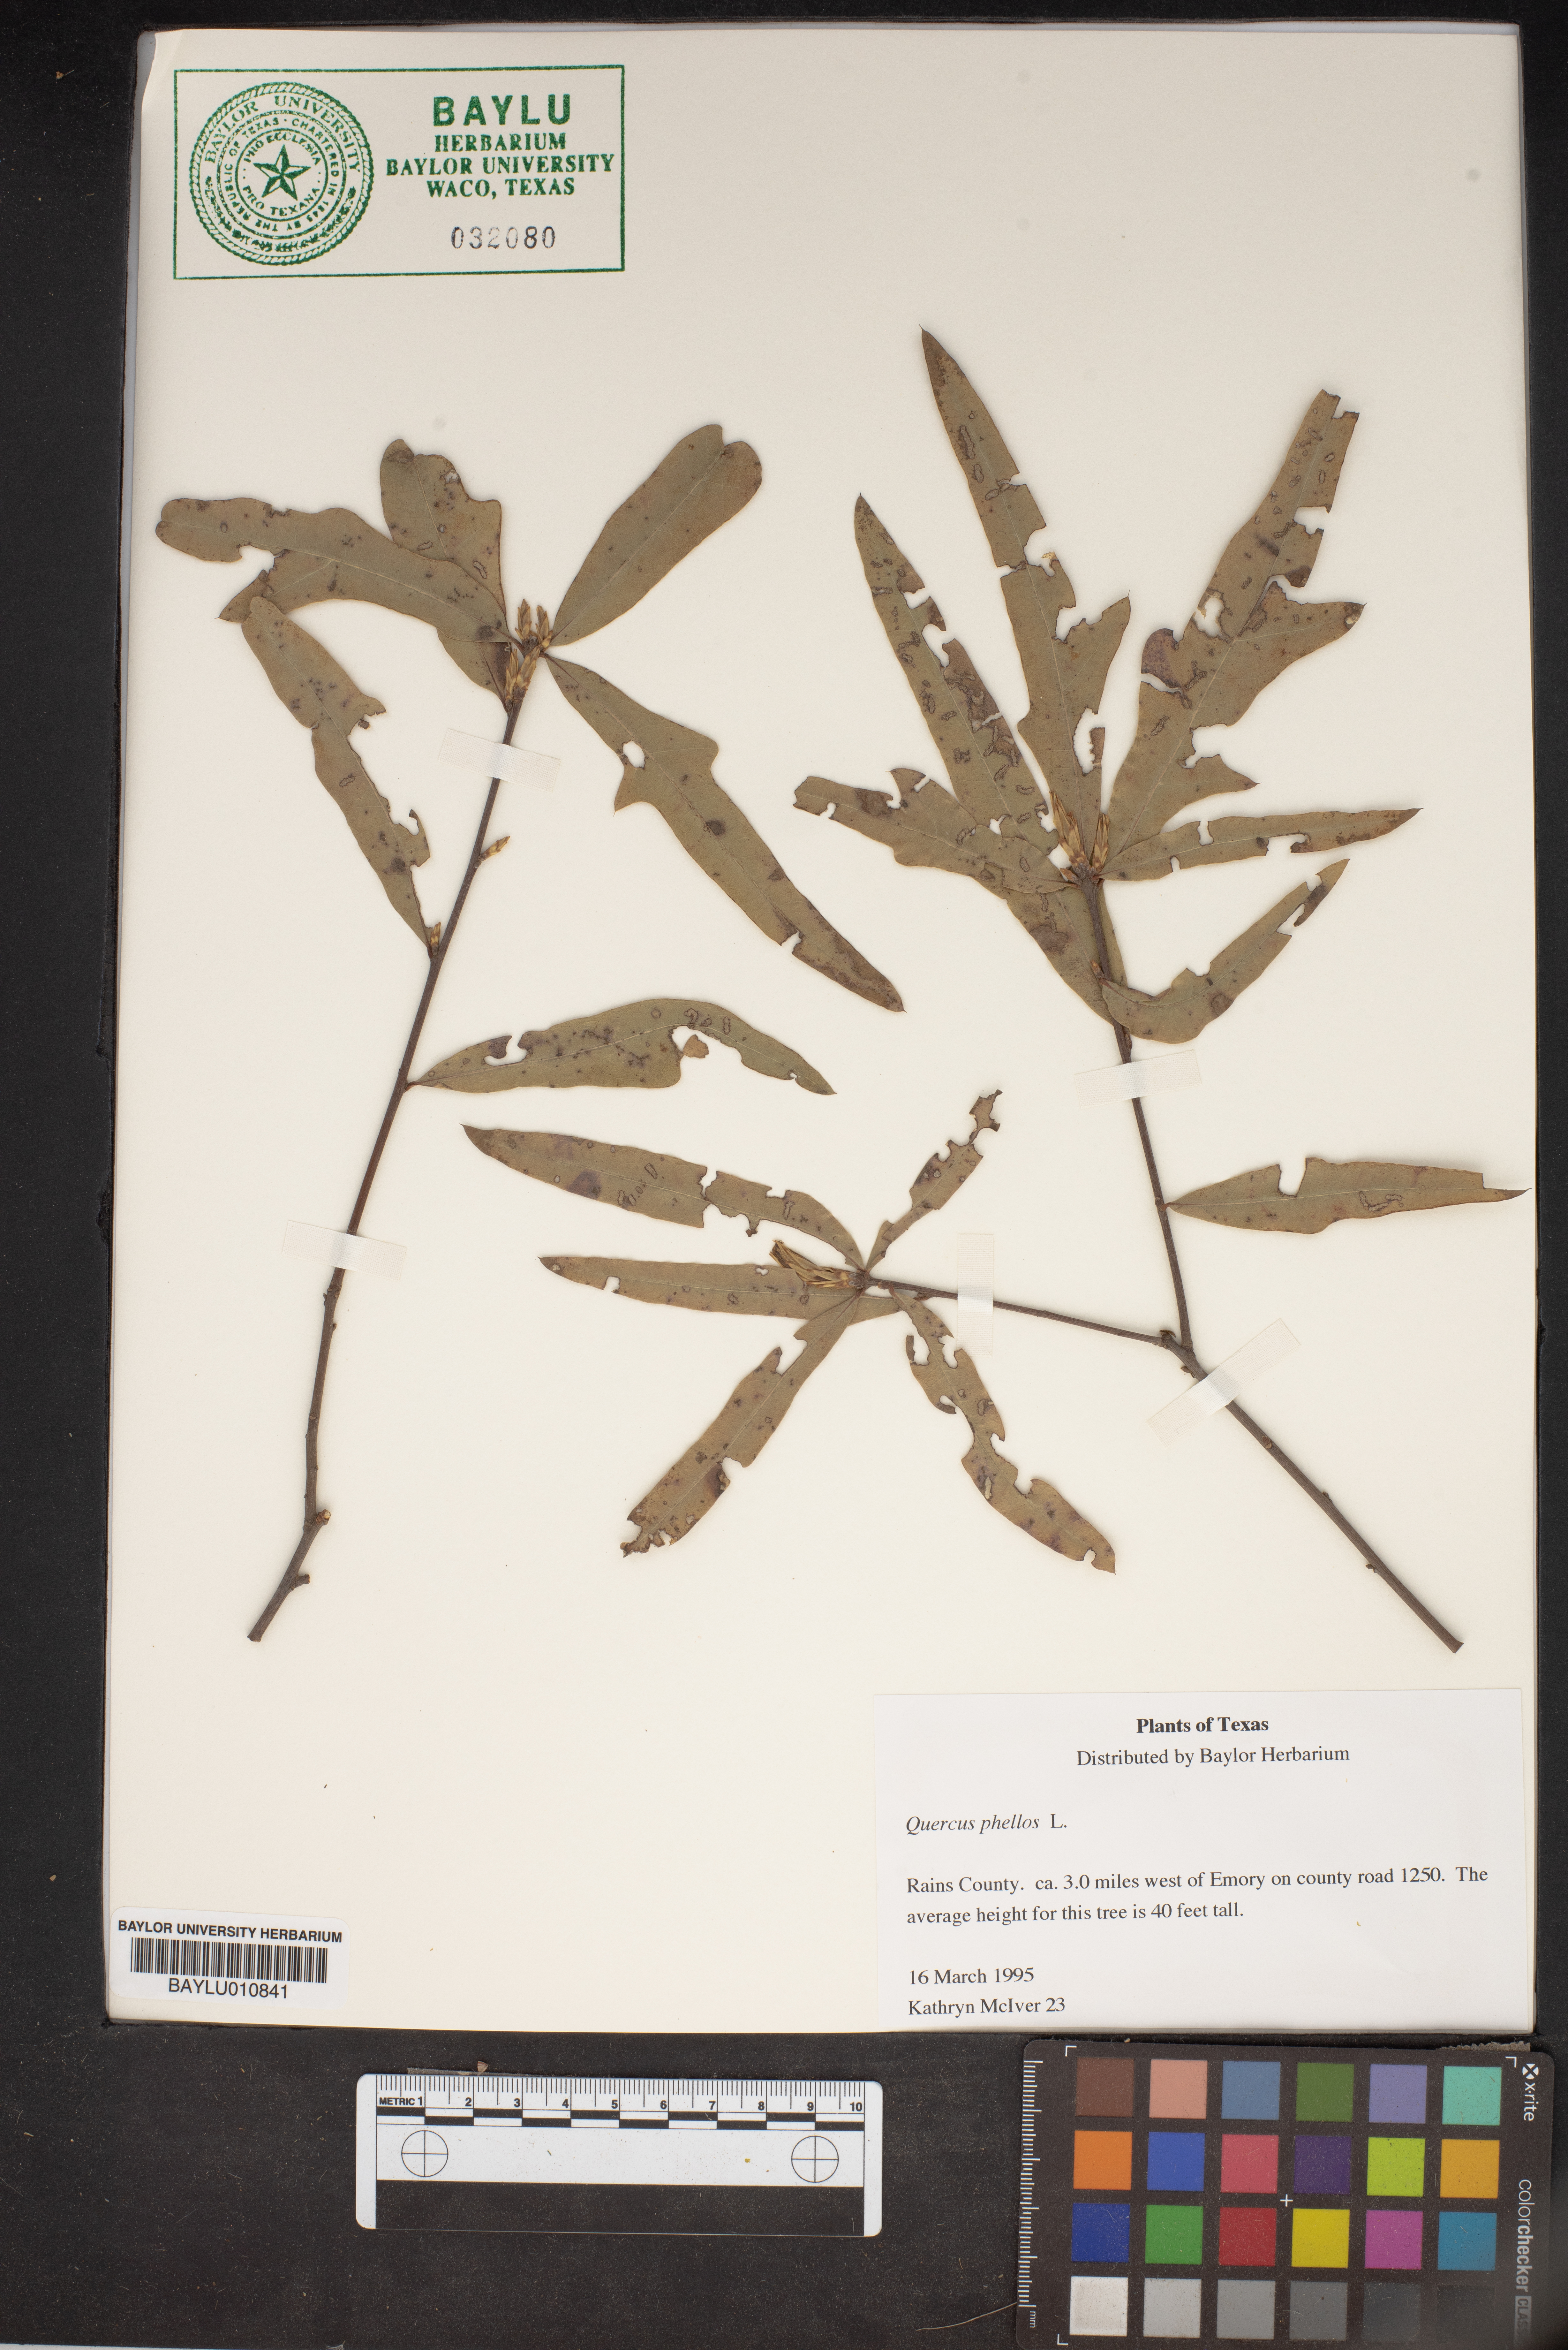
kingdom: Plantae
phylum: Tracheophyta
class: Magnoliopsida
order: Fagales
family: Fagaceae
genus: Quercus
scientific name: Quercus phellos
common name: Willow oak
